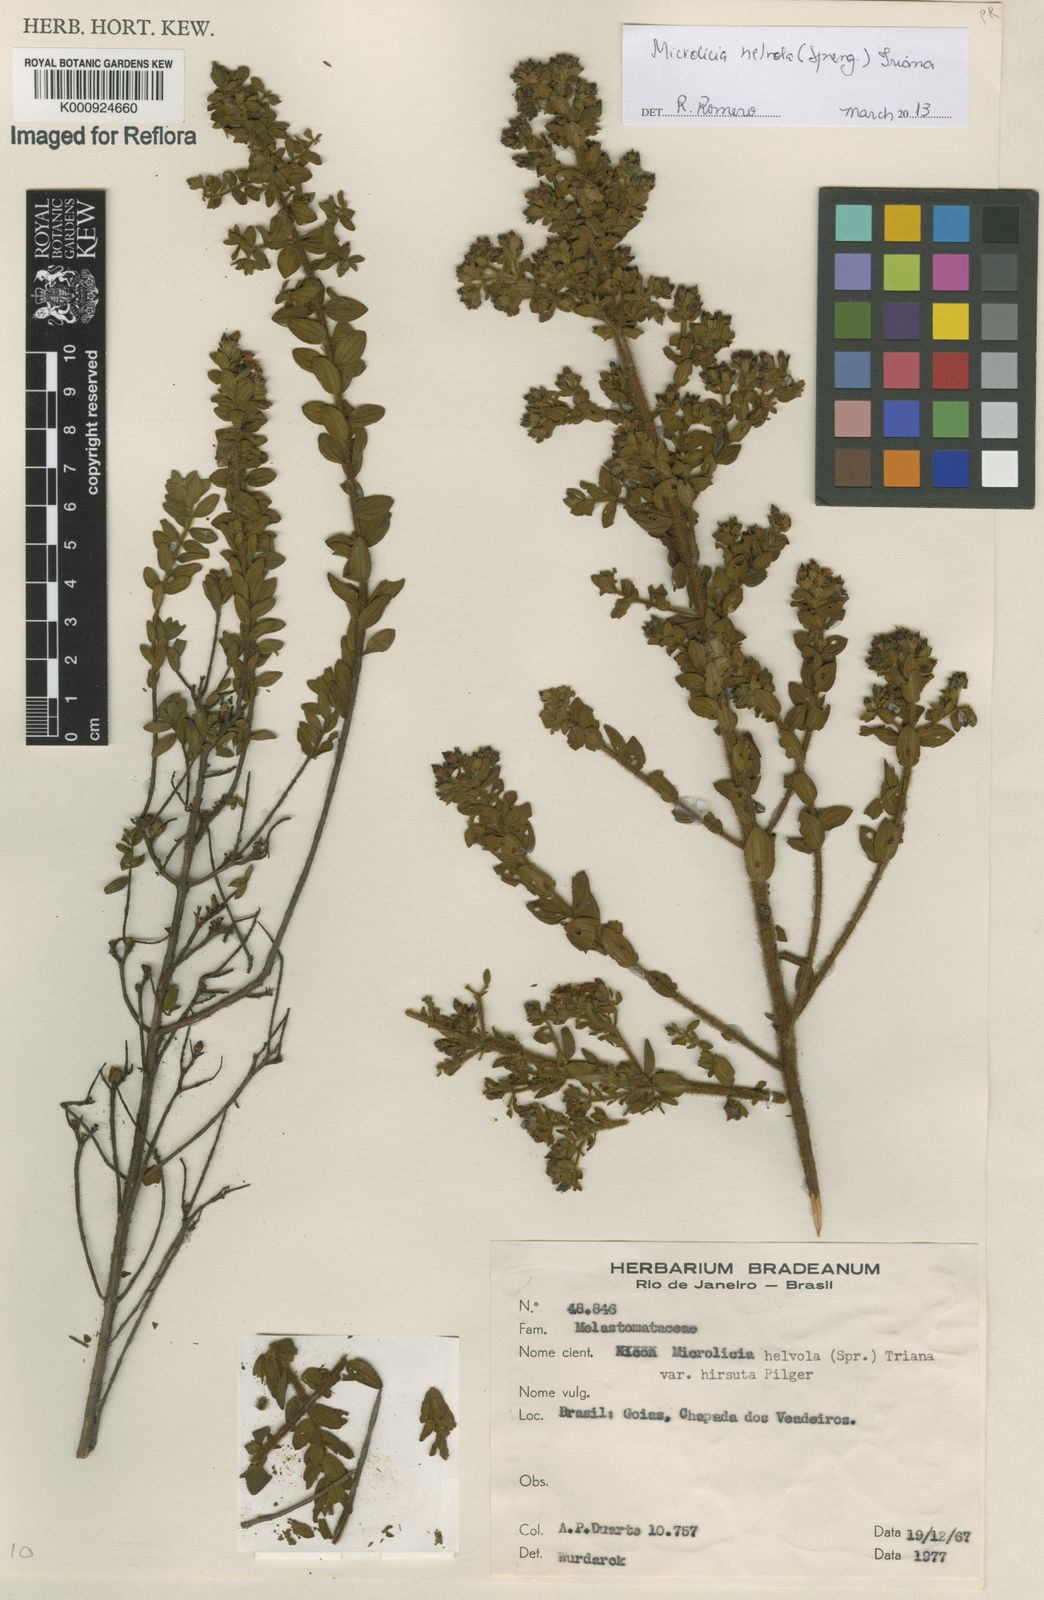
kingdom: Plantae
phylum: Tracheophyta
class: Magnoliopsida
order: Myrtales
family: Melastomataceae
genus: Microlicia
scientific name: Microlicia helvola
